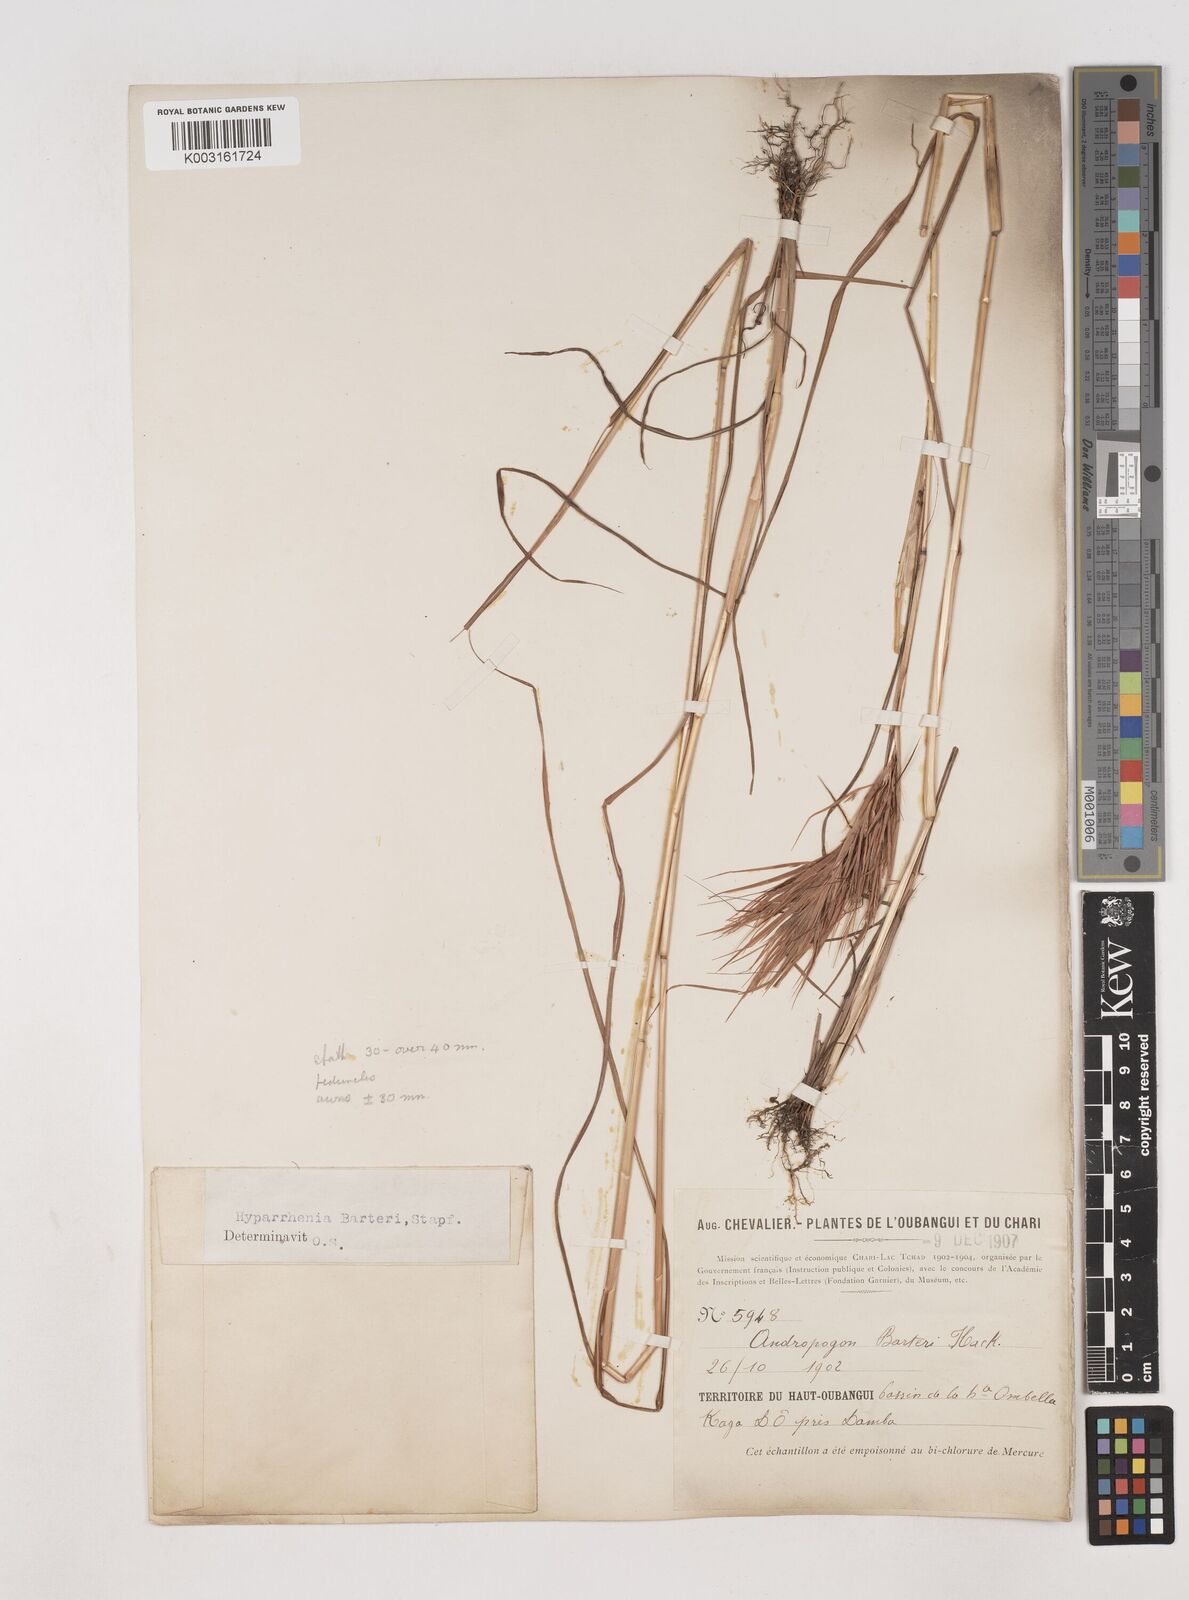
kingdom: Plantae
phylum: Tracheophyta
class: Liliopsida
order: Poales
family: Poaceae
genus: Hyparrhenia
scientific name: Hyparrhenia barteri
